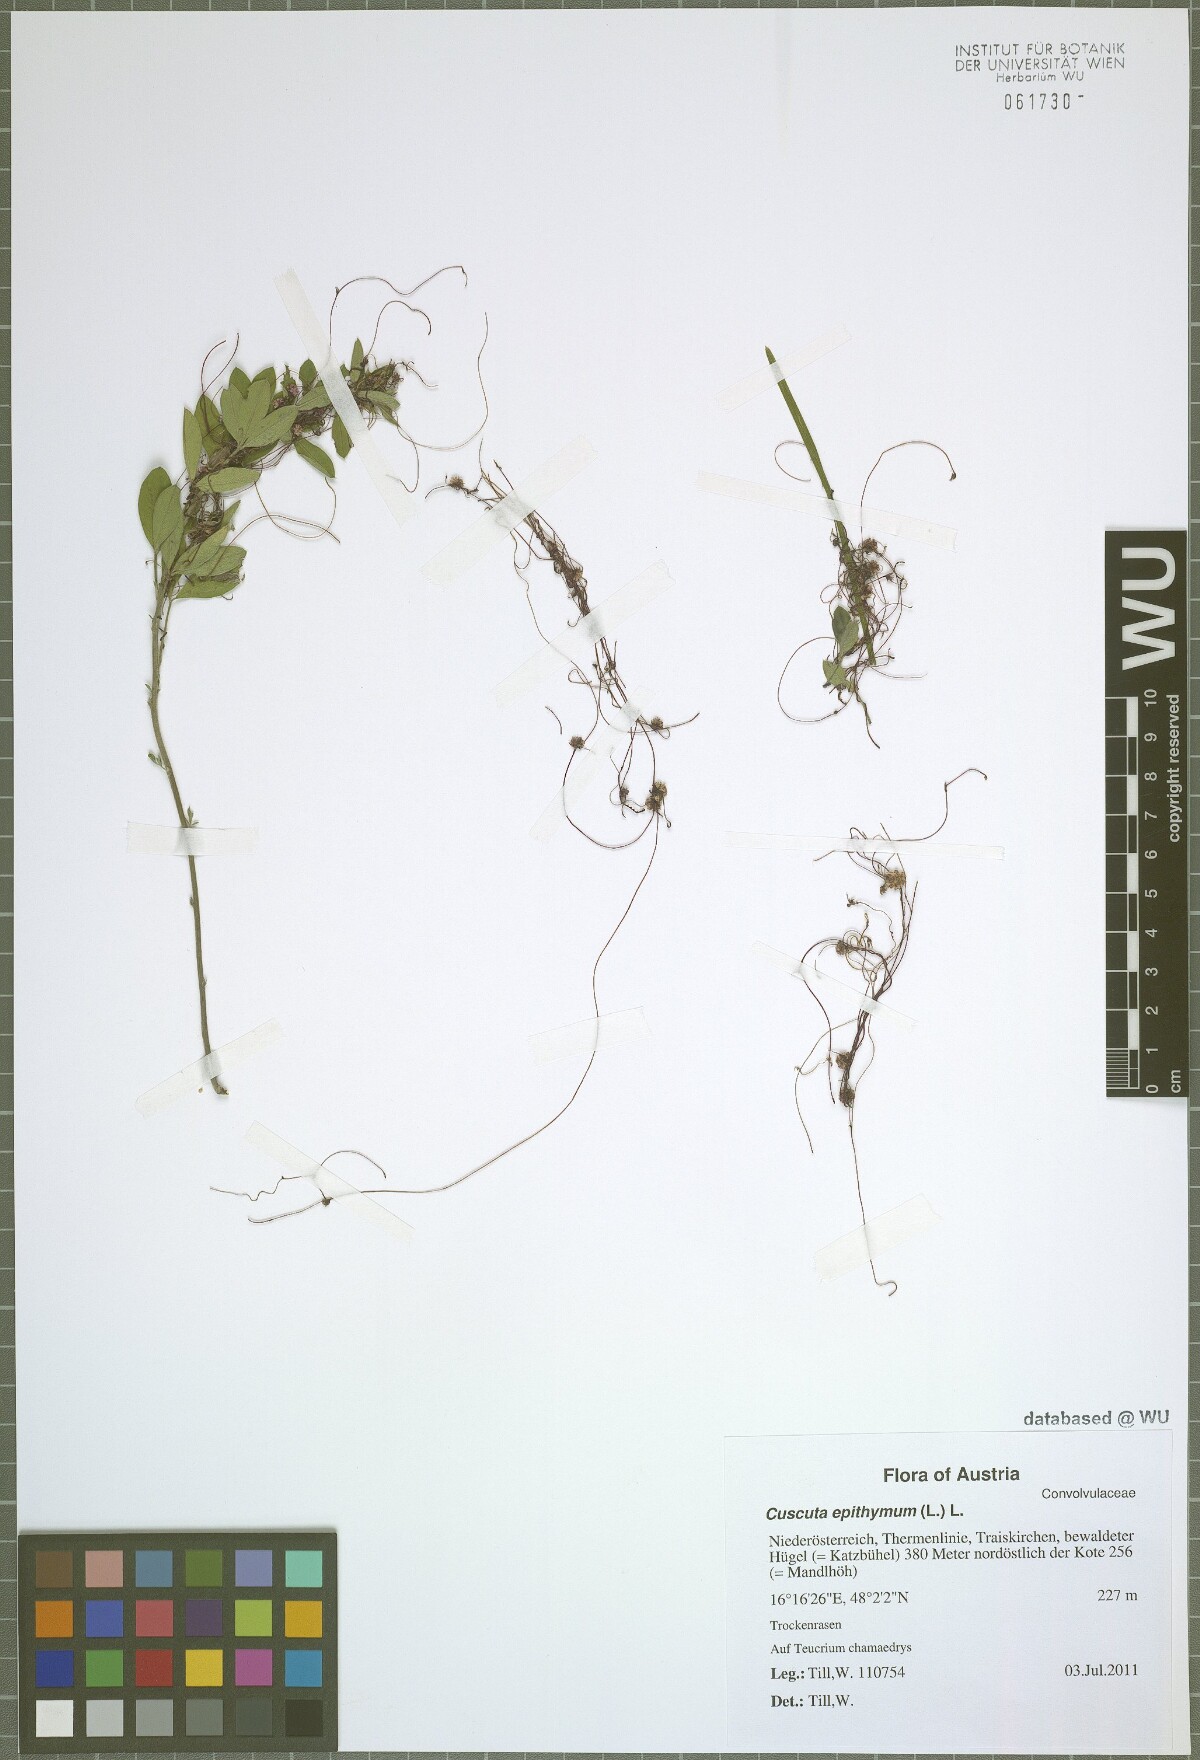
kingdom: Plantae
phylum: Tracheophyta
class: Magnoliopsida
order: Solanales
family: Convolvulaceae
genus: Cuscuta
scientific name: Cuscuta epithymum
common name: Clover dodder
